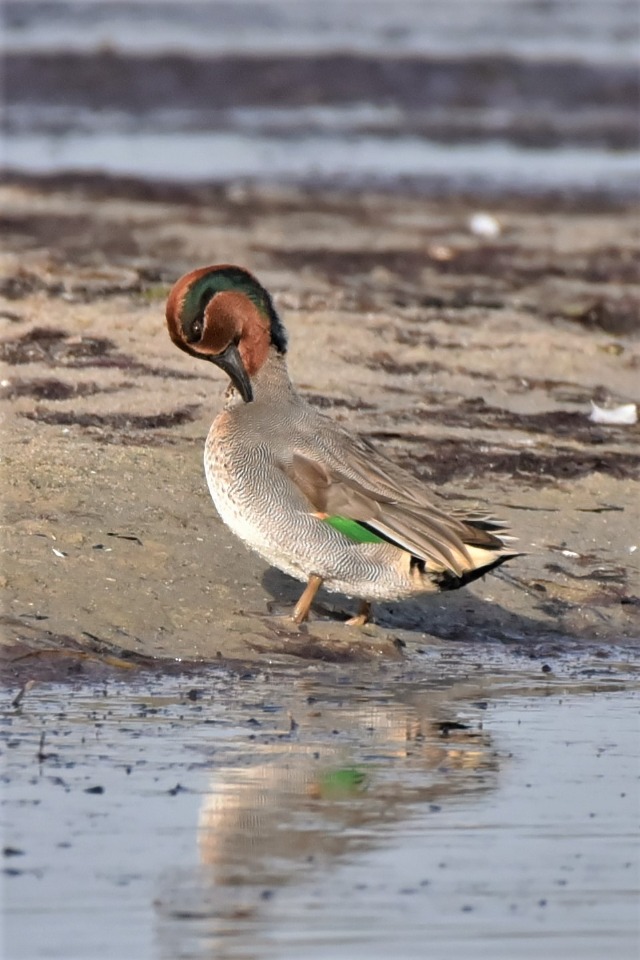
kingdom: Animalia
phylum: Chordata
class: Aves
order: Anseriformes
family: Anatidae
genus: Anas
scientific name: Anas crecca
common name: Krikand
